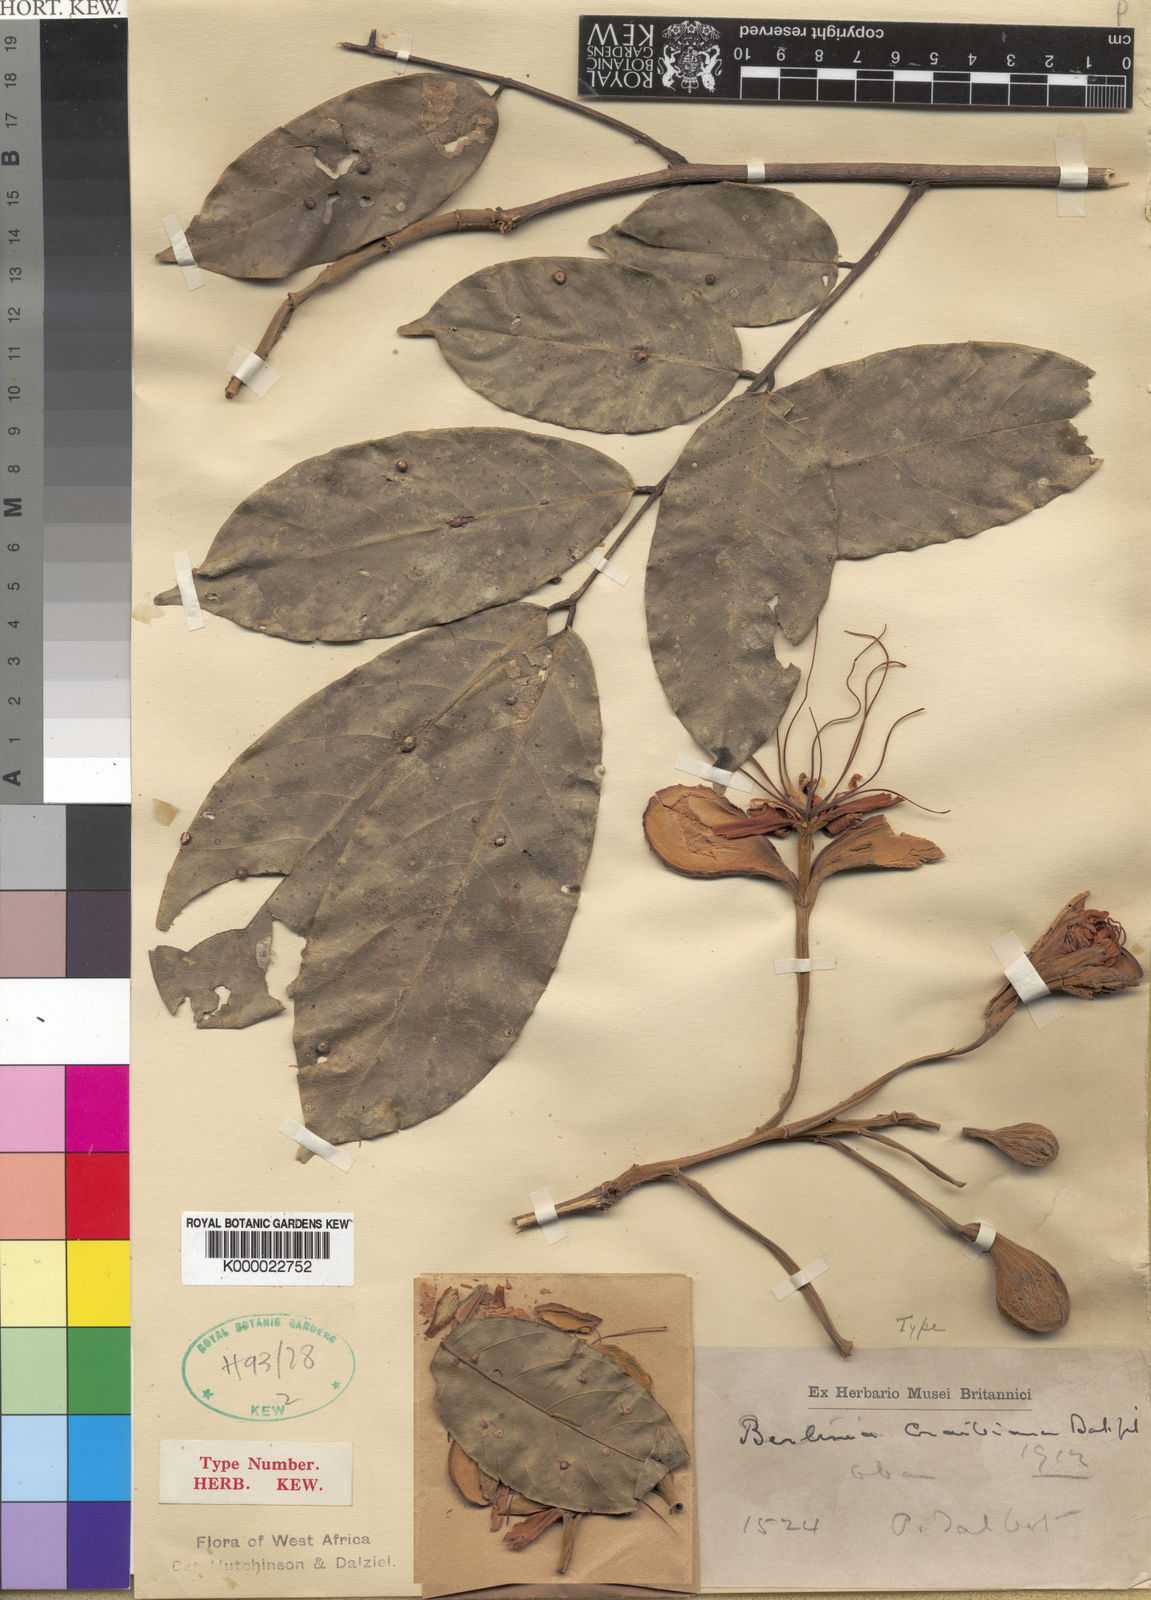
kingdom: Plantae
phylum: Tracheophyta
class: Magnoliopsida
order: Fabales
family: Fabaceae
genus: Berlinia
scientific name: Berlinia craibiana
